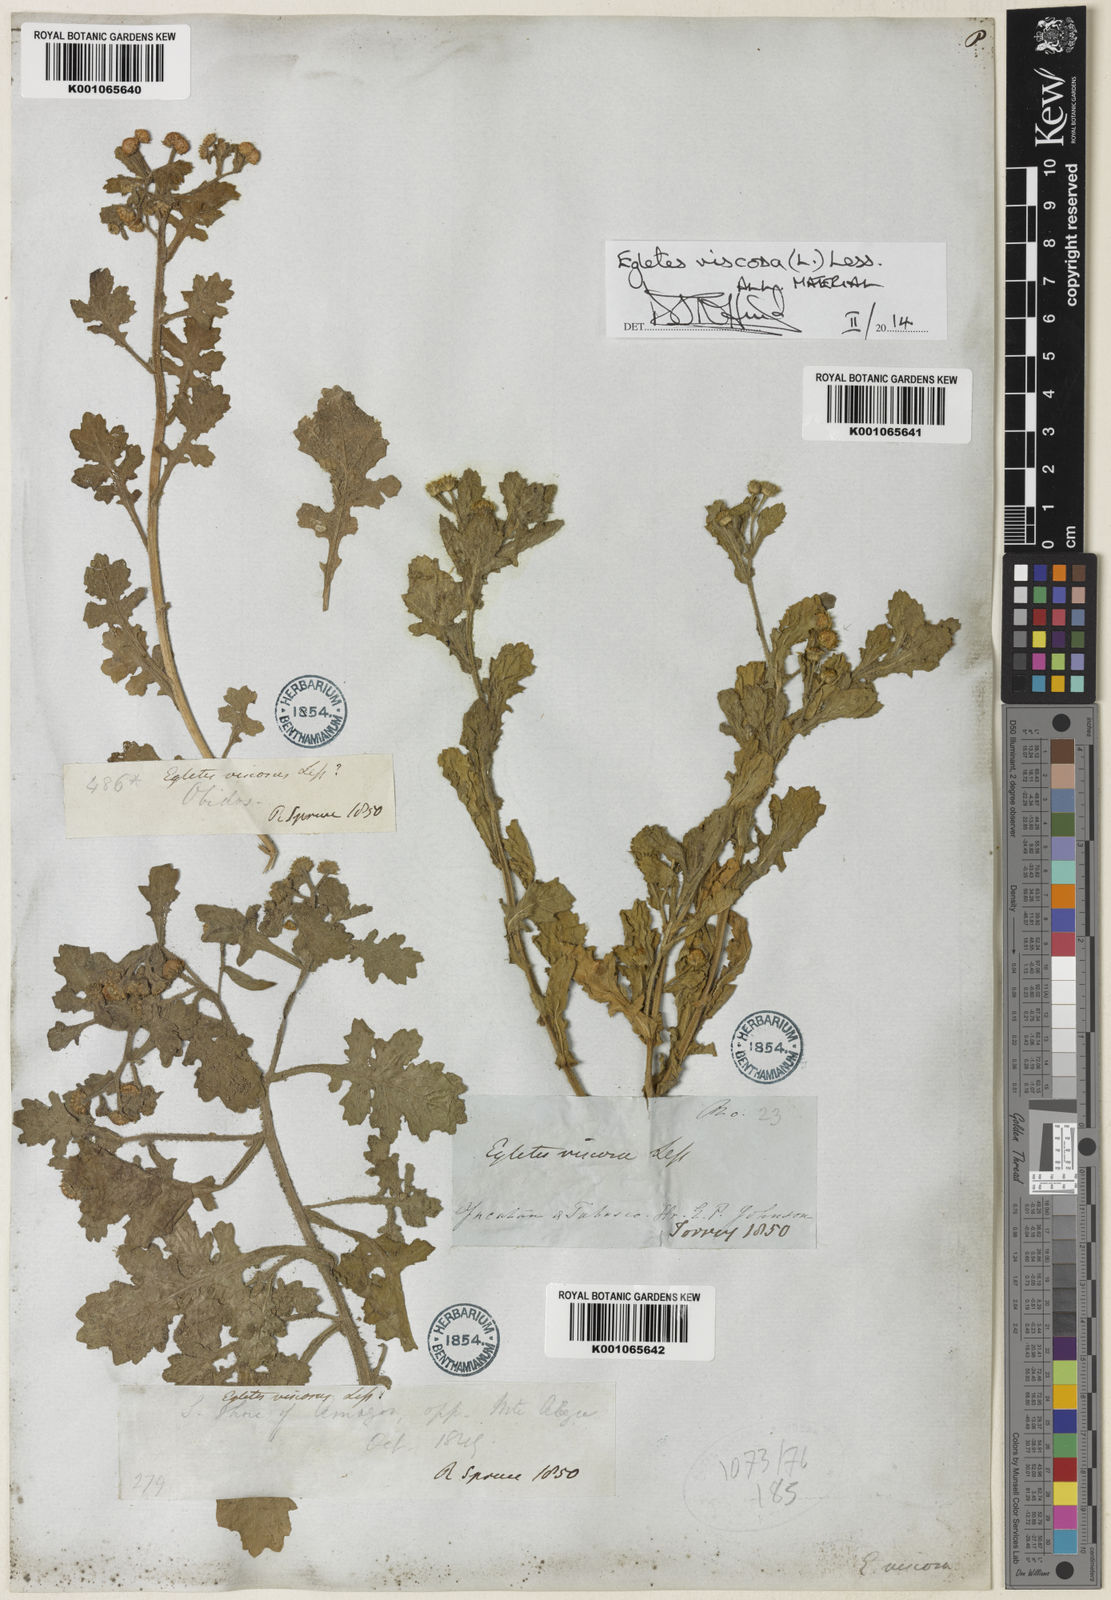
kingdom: Plantae
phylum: Tracheophyta
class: Magnoliopsida
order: Asterales
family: Asteraceae
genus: Egletes
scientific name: Egletes viscosa
